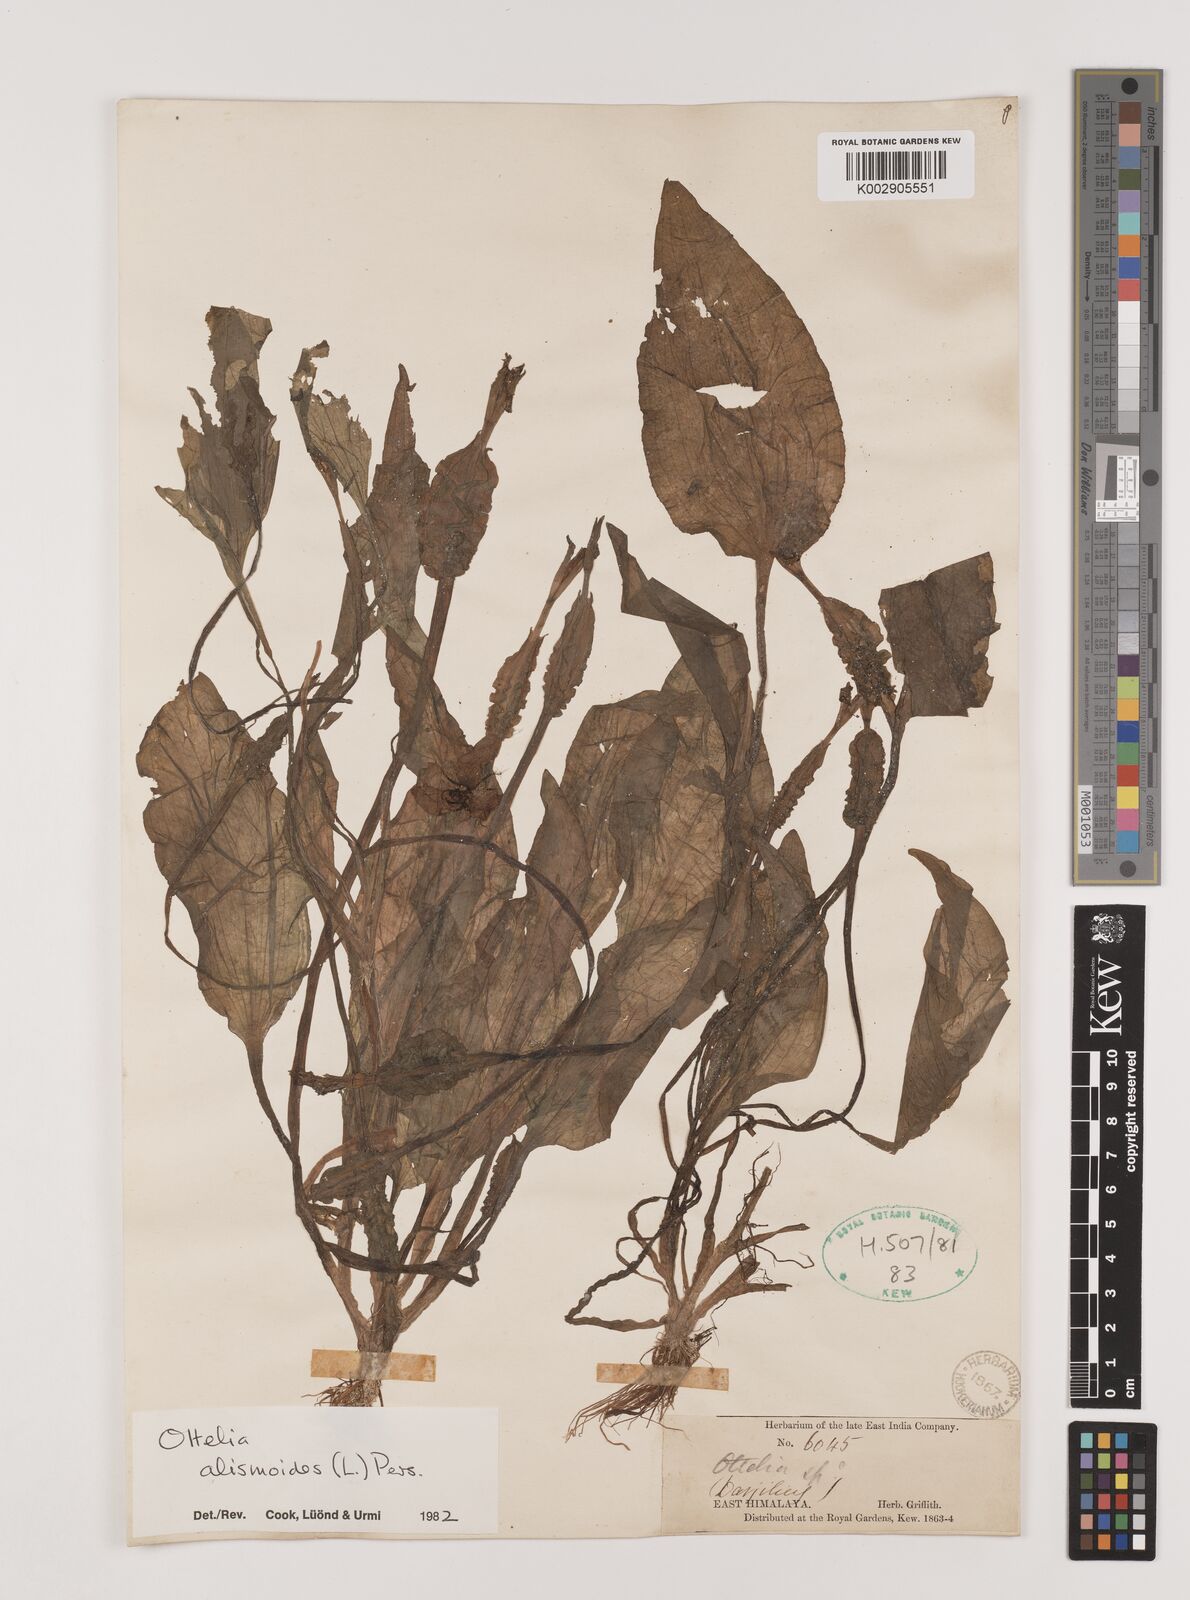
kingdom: Plantae
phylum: Tracheophyta
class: Liliopsida
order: Alismatales
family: Hydrocharitaceae
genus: Ottelia
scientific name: Ottelia alismoides
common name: Duck-lettuce
